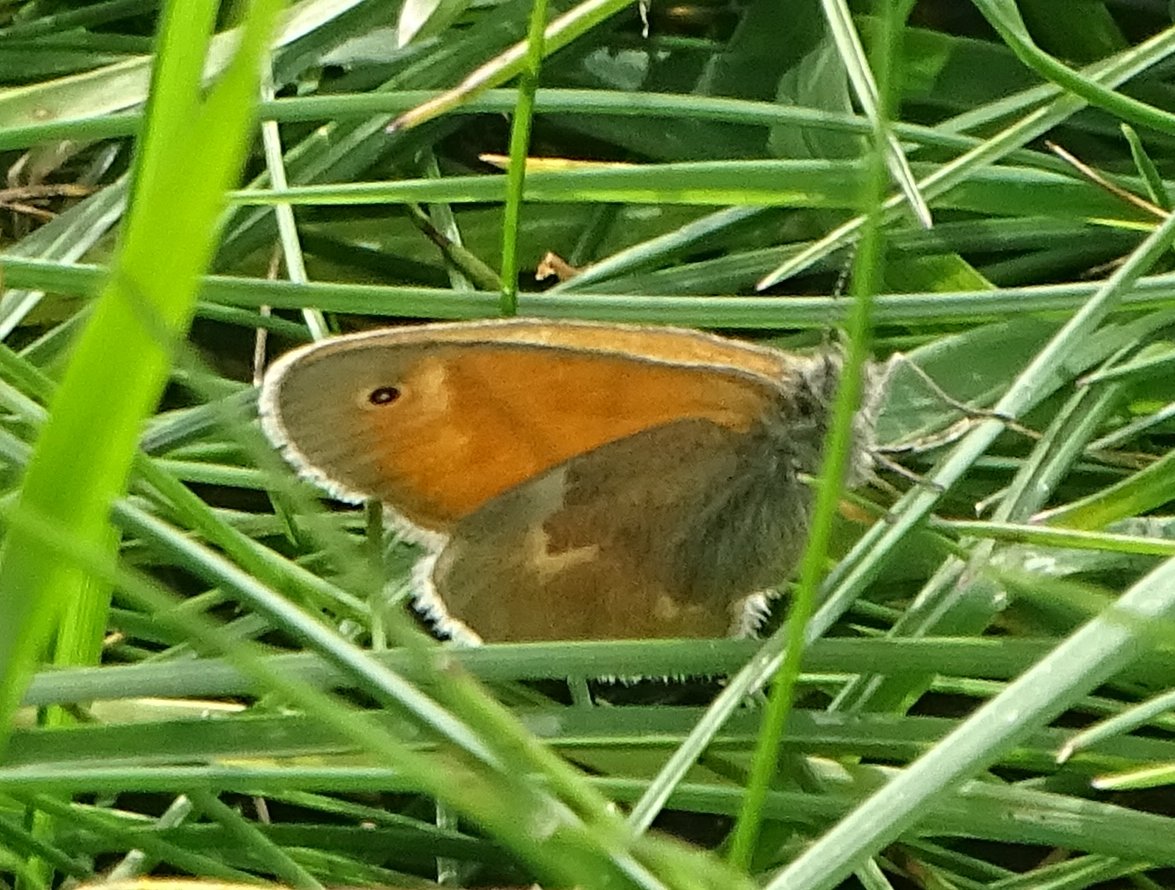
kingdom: Animalia
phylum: Arthropoda
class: Insecta
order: Lepidoptera
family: Nymphalidae
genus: Coenonympha
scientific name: Coenonympha tullia
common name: Large Heath
